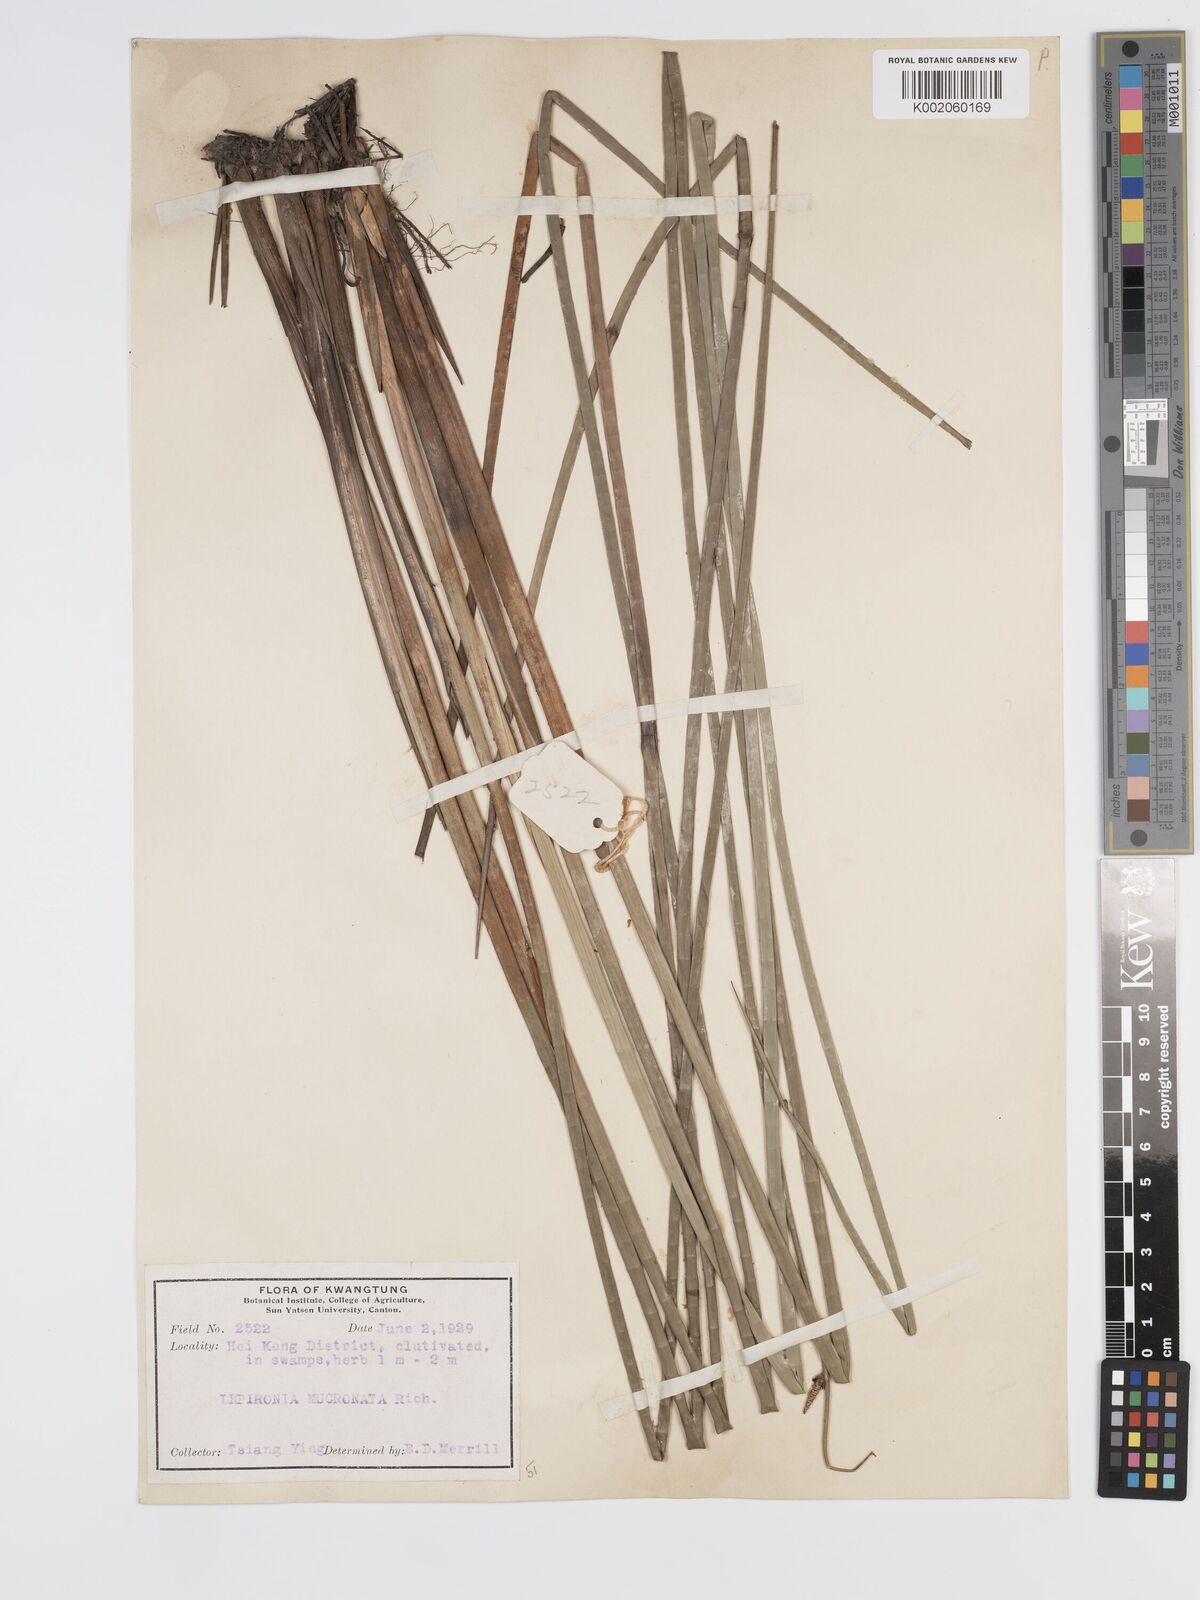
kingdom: Plantae
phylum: Tracheophyta
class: Liliopsida
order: Poales
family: Cyperaceae
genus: Lepironia
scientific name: Lepironia articulata
